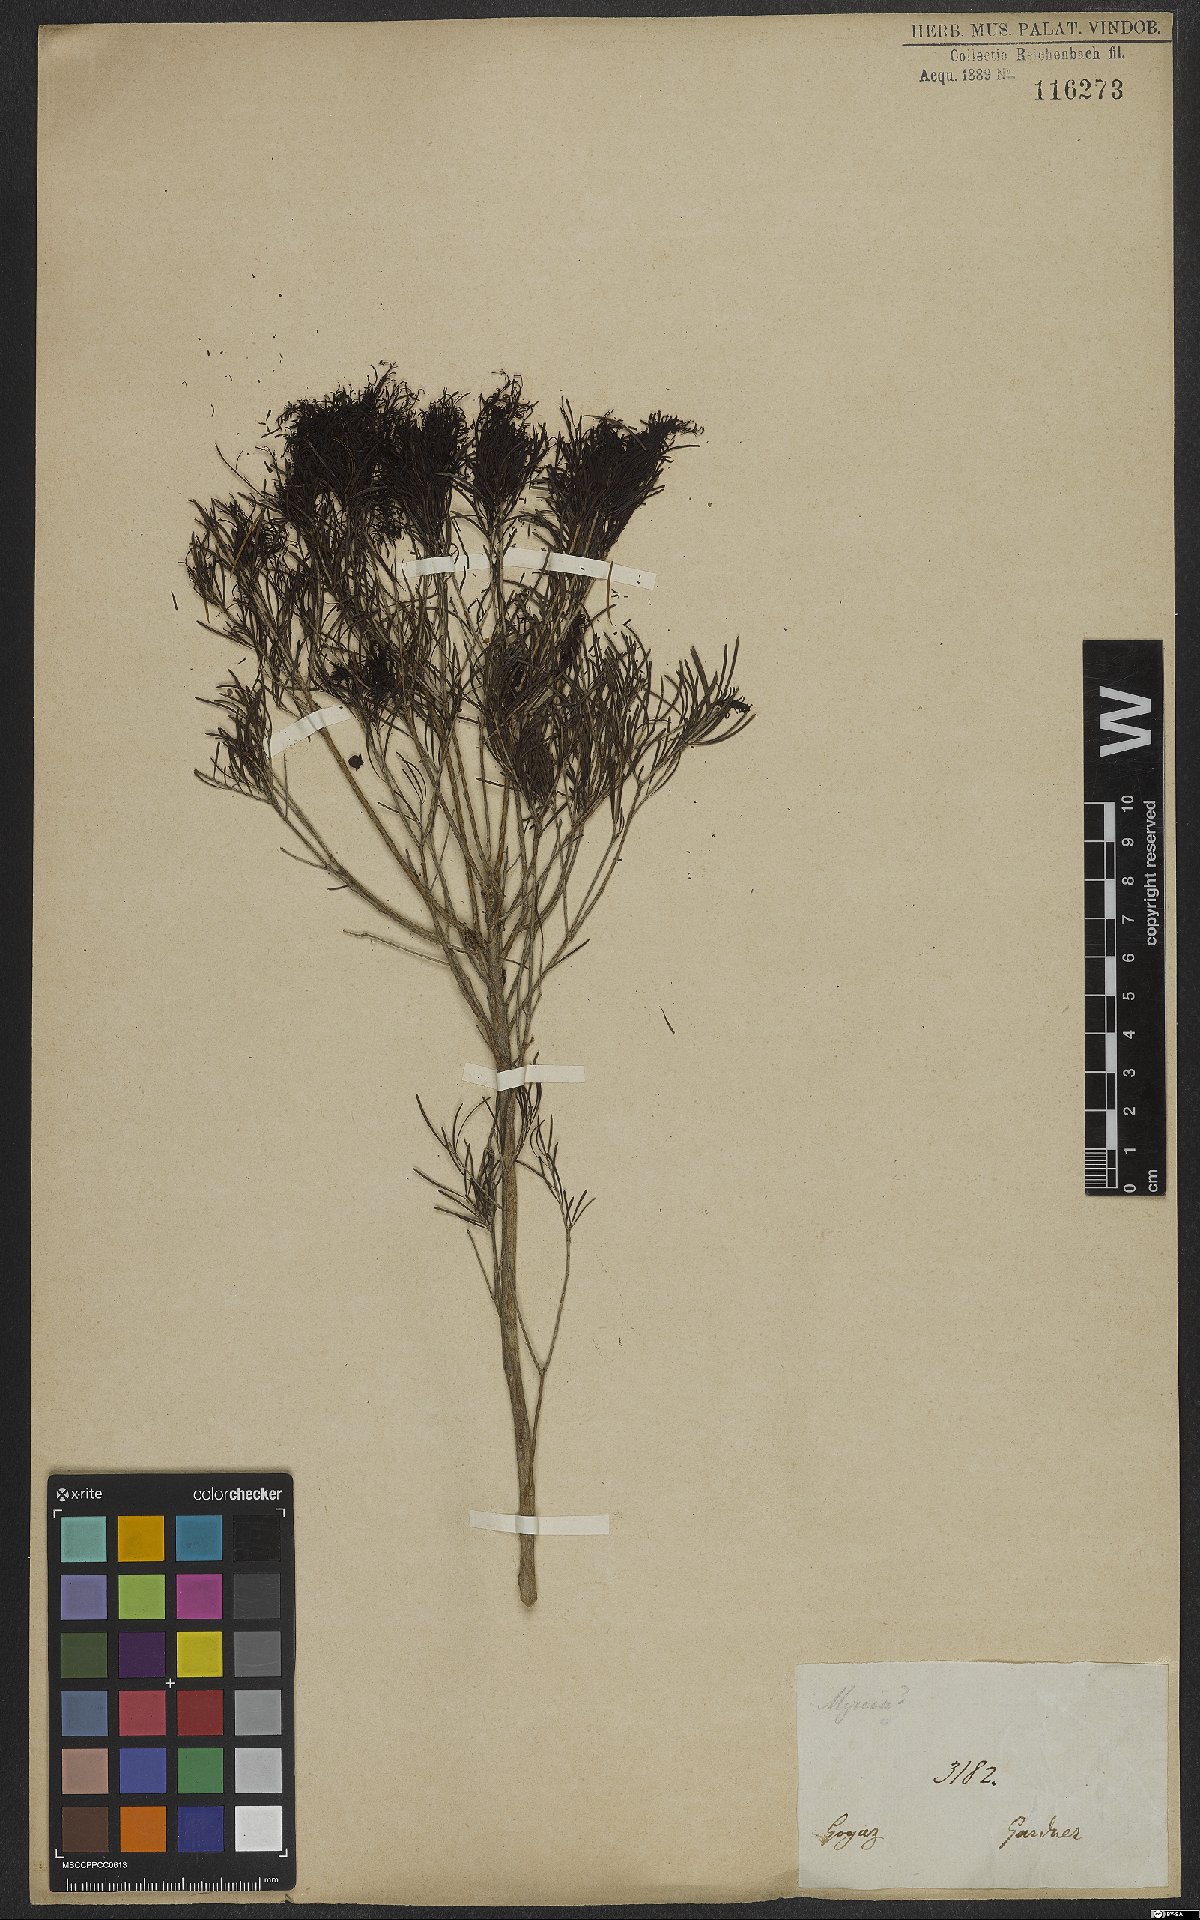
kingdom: Plantae
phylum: Tracheophyta
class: Magnoliopsida
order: Myrtales
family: Myrtaceae
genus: Blepharocalyx
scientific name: Blepharocalyx myriophyllus
